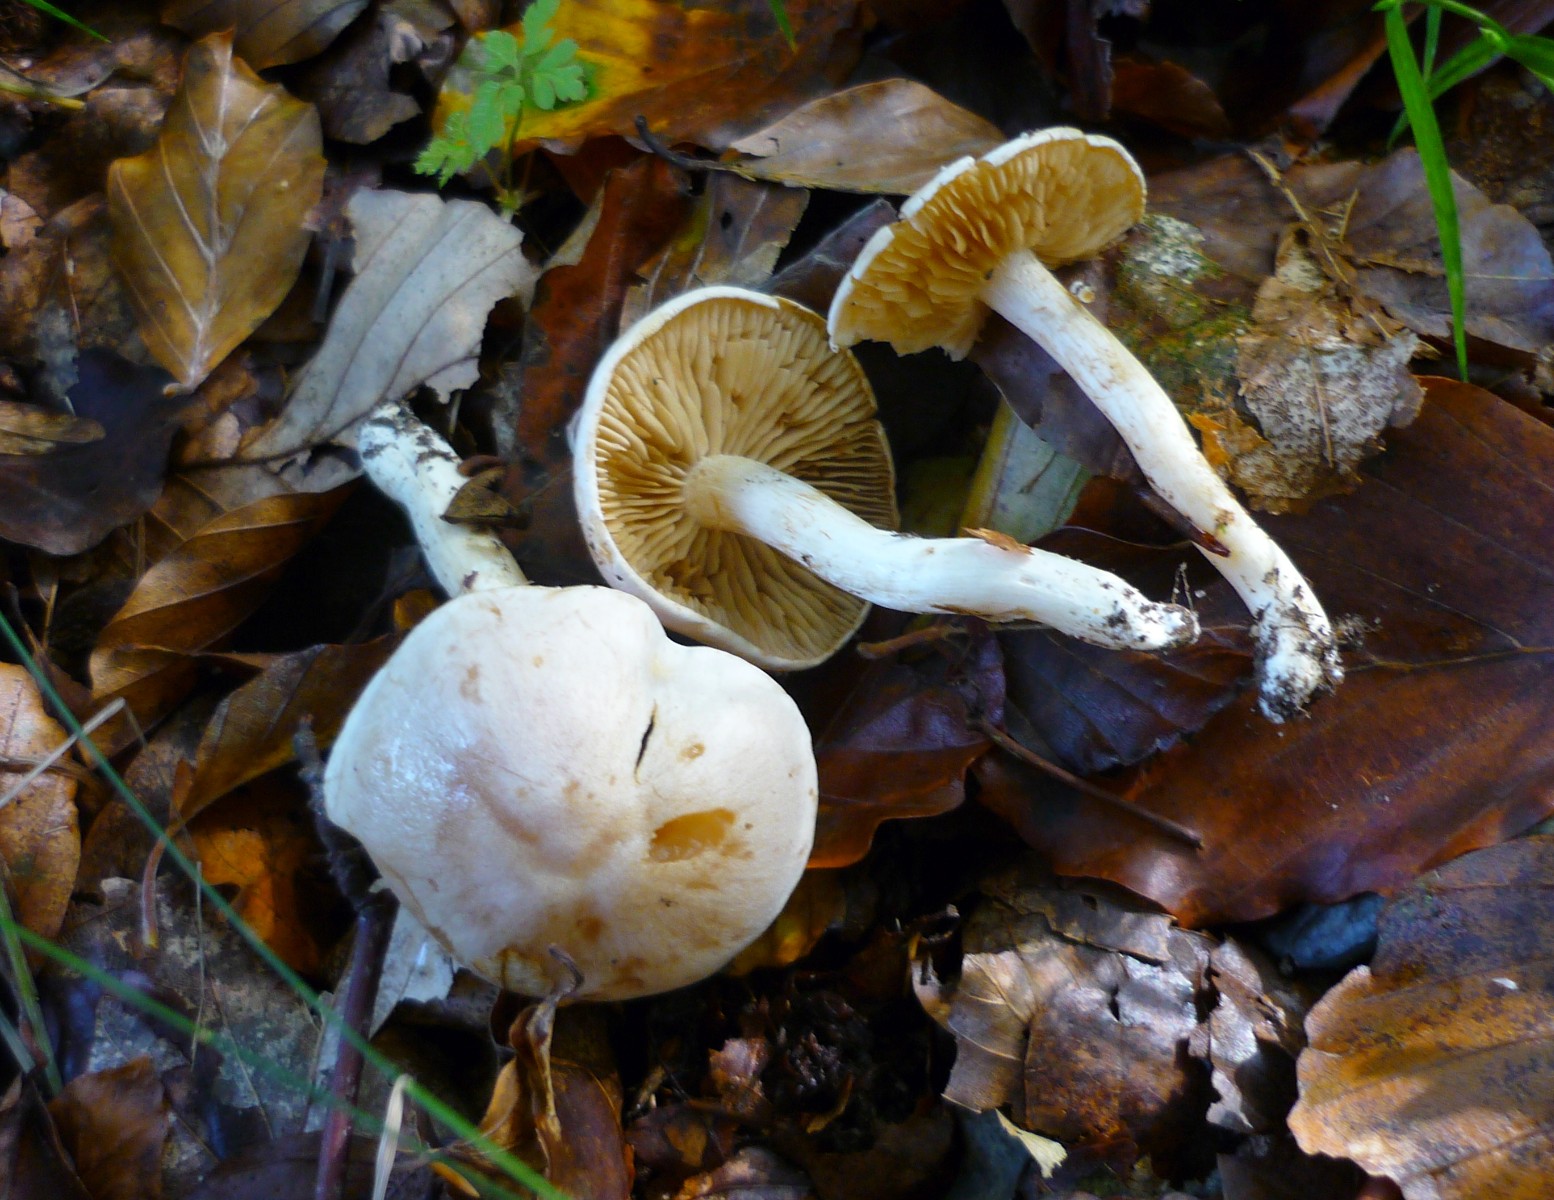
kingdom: Fungi
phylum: Basidiomycota
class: Agaricomycetes
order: Agaricales
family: Cortinariaceae
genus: Thaxterogaster
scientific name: Thaxterogaster barbatus
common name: elfenbens-slørhat
